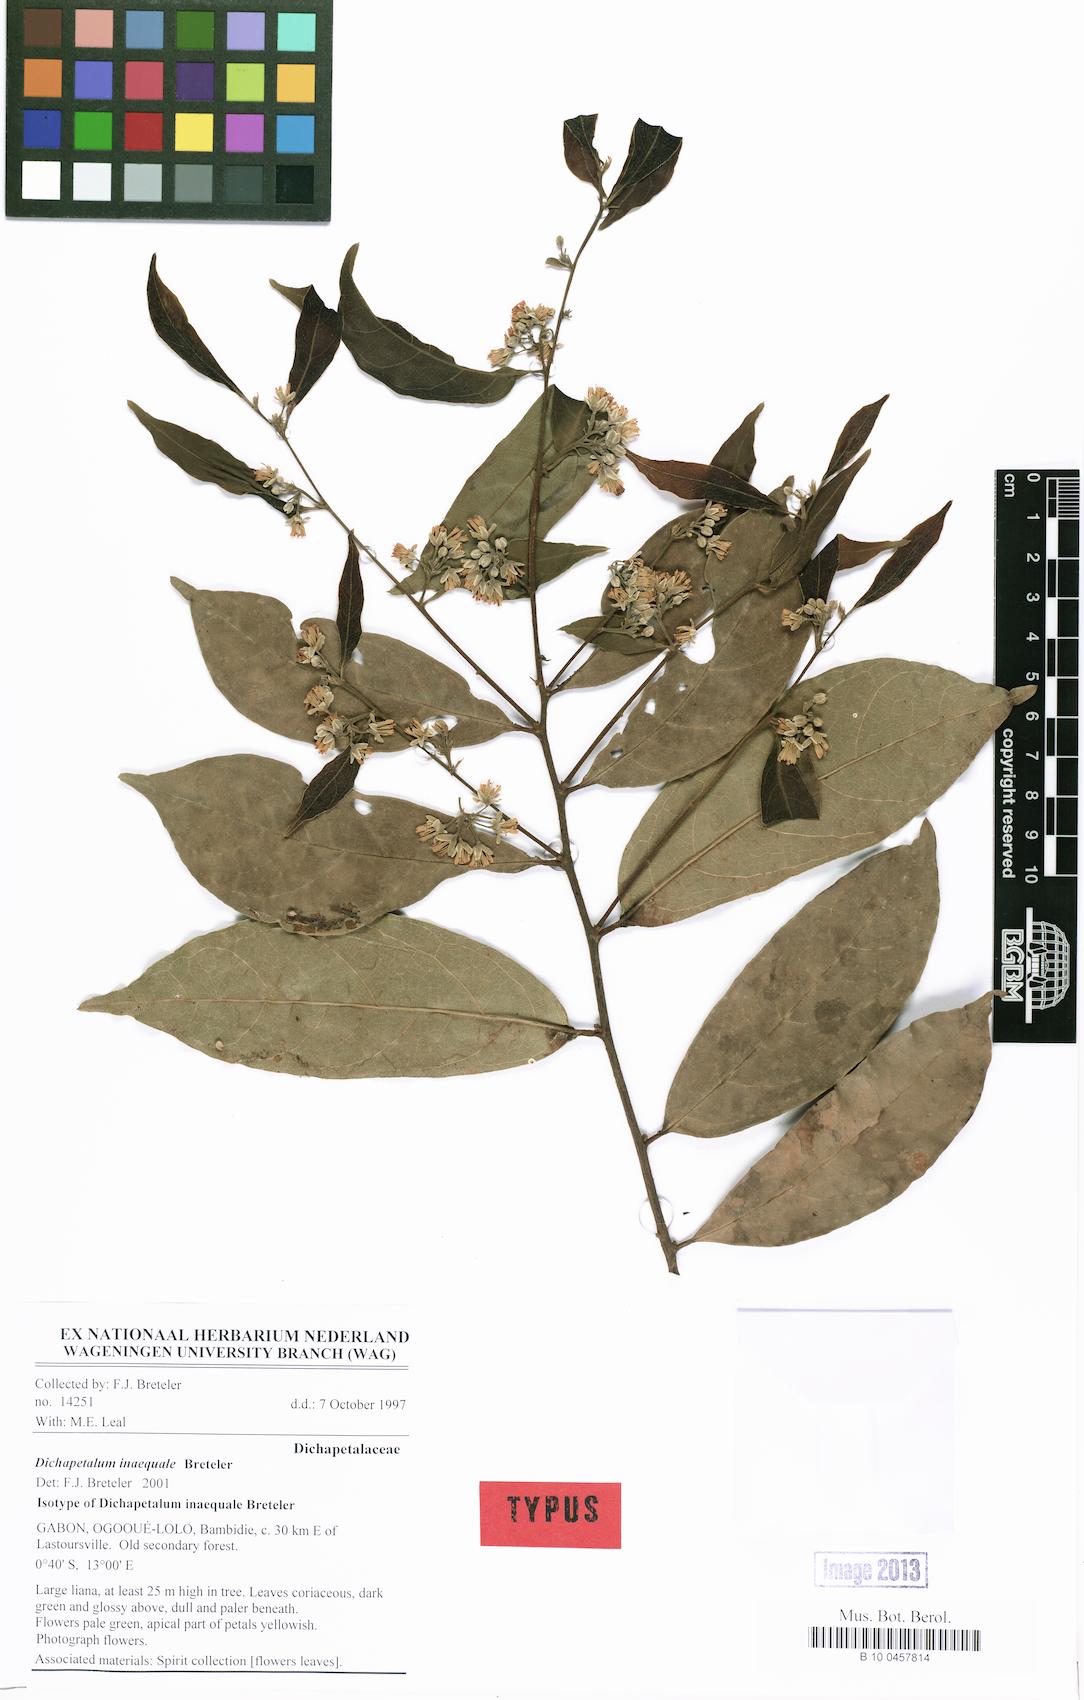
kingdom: Plantae
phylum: Tracheophyta
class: Magnoliopsida
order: Malpighiales
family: Dichapetalaceae
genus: Dichapetalum
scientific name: Dichapetalum inaequale
